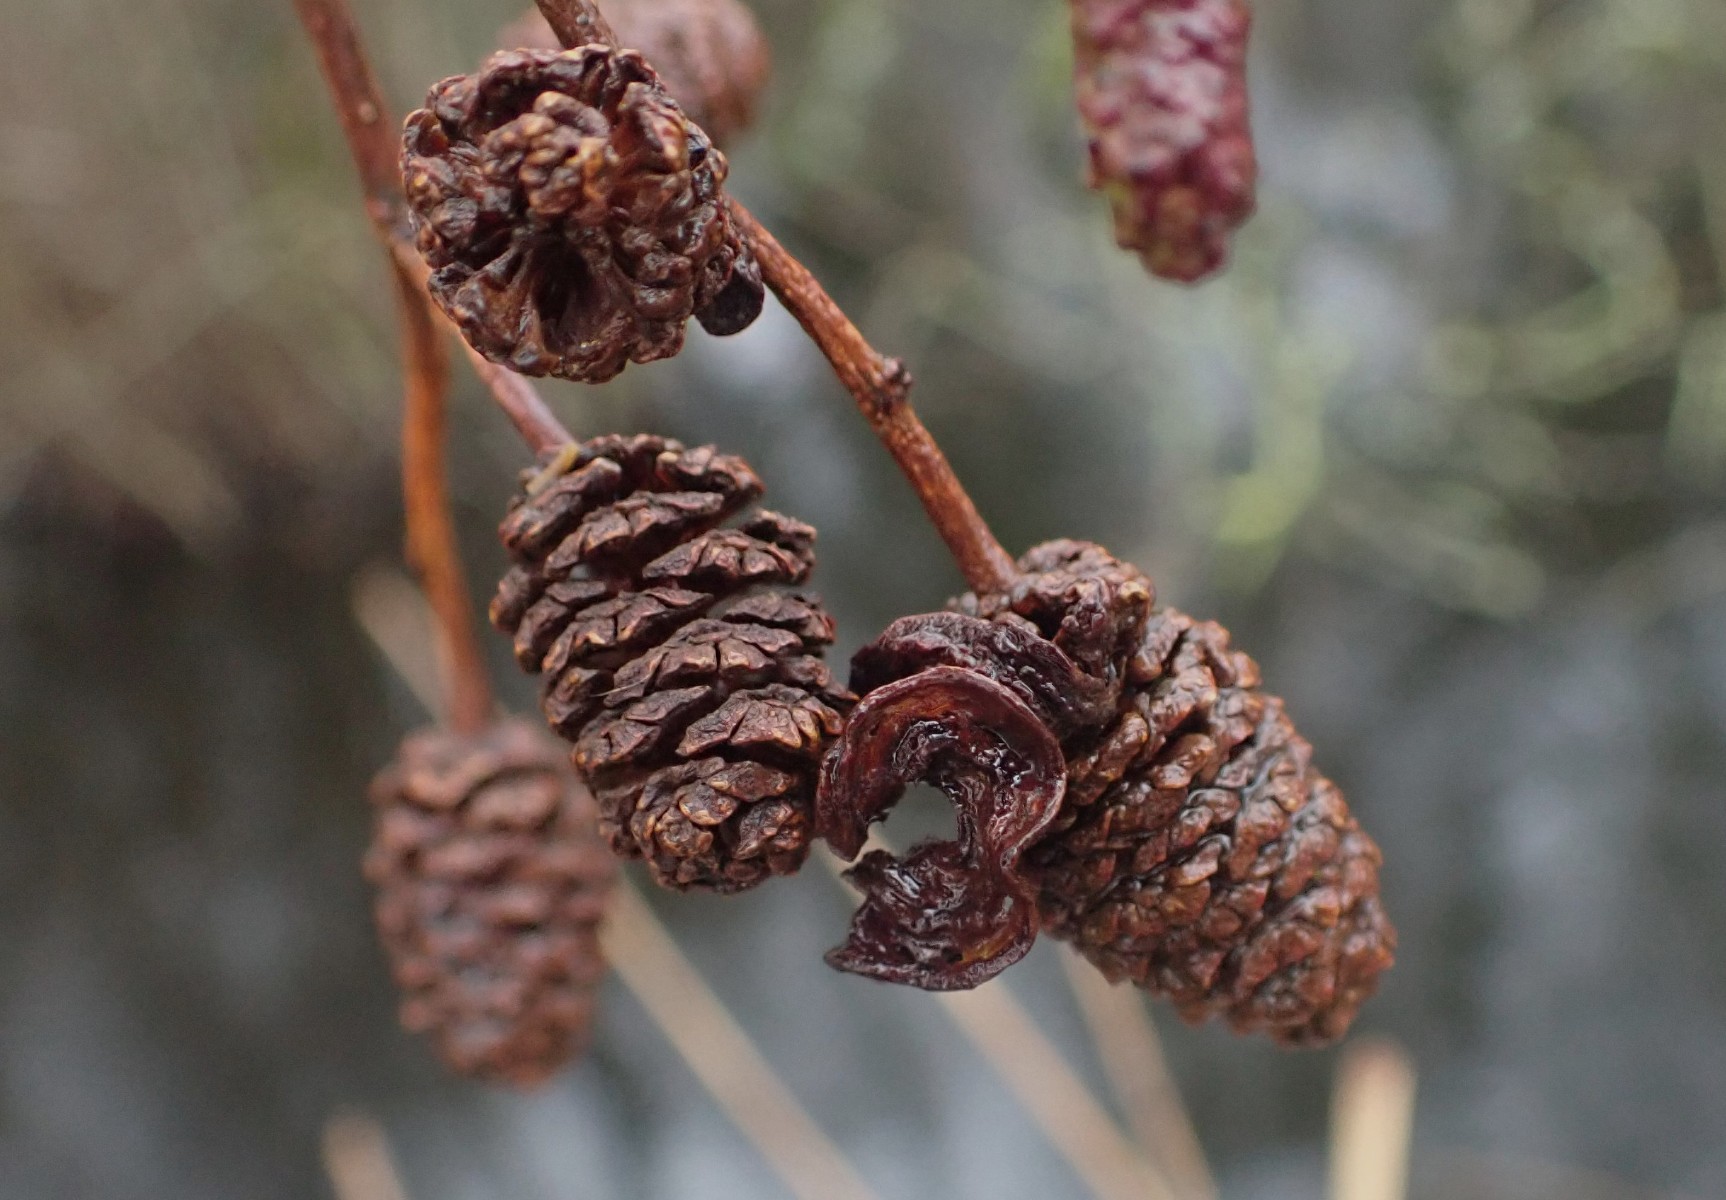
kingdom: Fungi
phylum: Ascomycota
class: Taphrinomycetes
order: Taphrinales
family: Taphrinaceae
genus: Taphrina
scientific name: Taphrina alni
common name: Alder tongue
